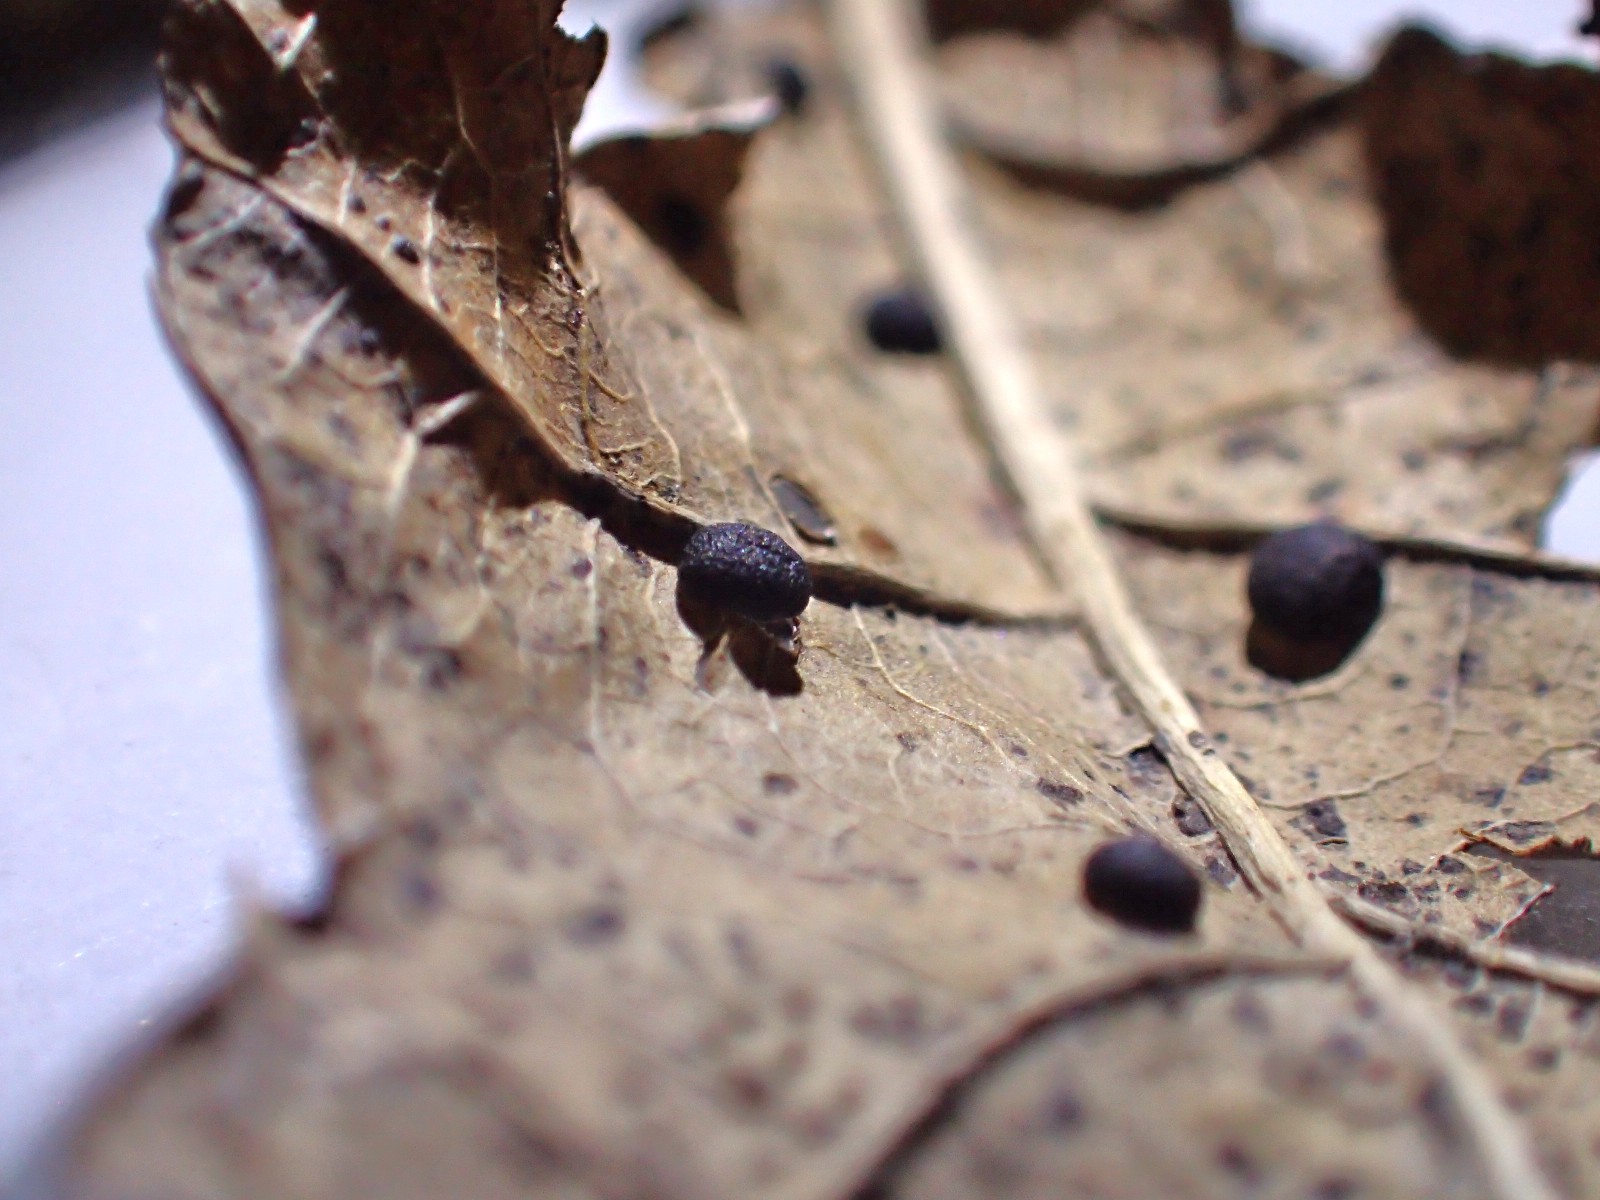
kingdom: Fungi
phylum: Basidiomycota
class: Agaricomycetes
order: Agaricales
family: Typhulaceae
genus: Sclerotium
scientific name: Sclerotium
